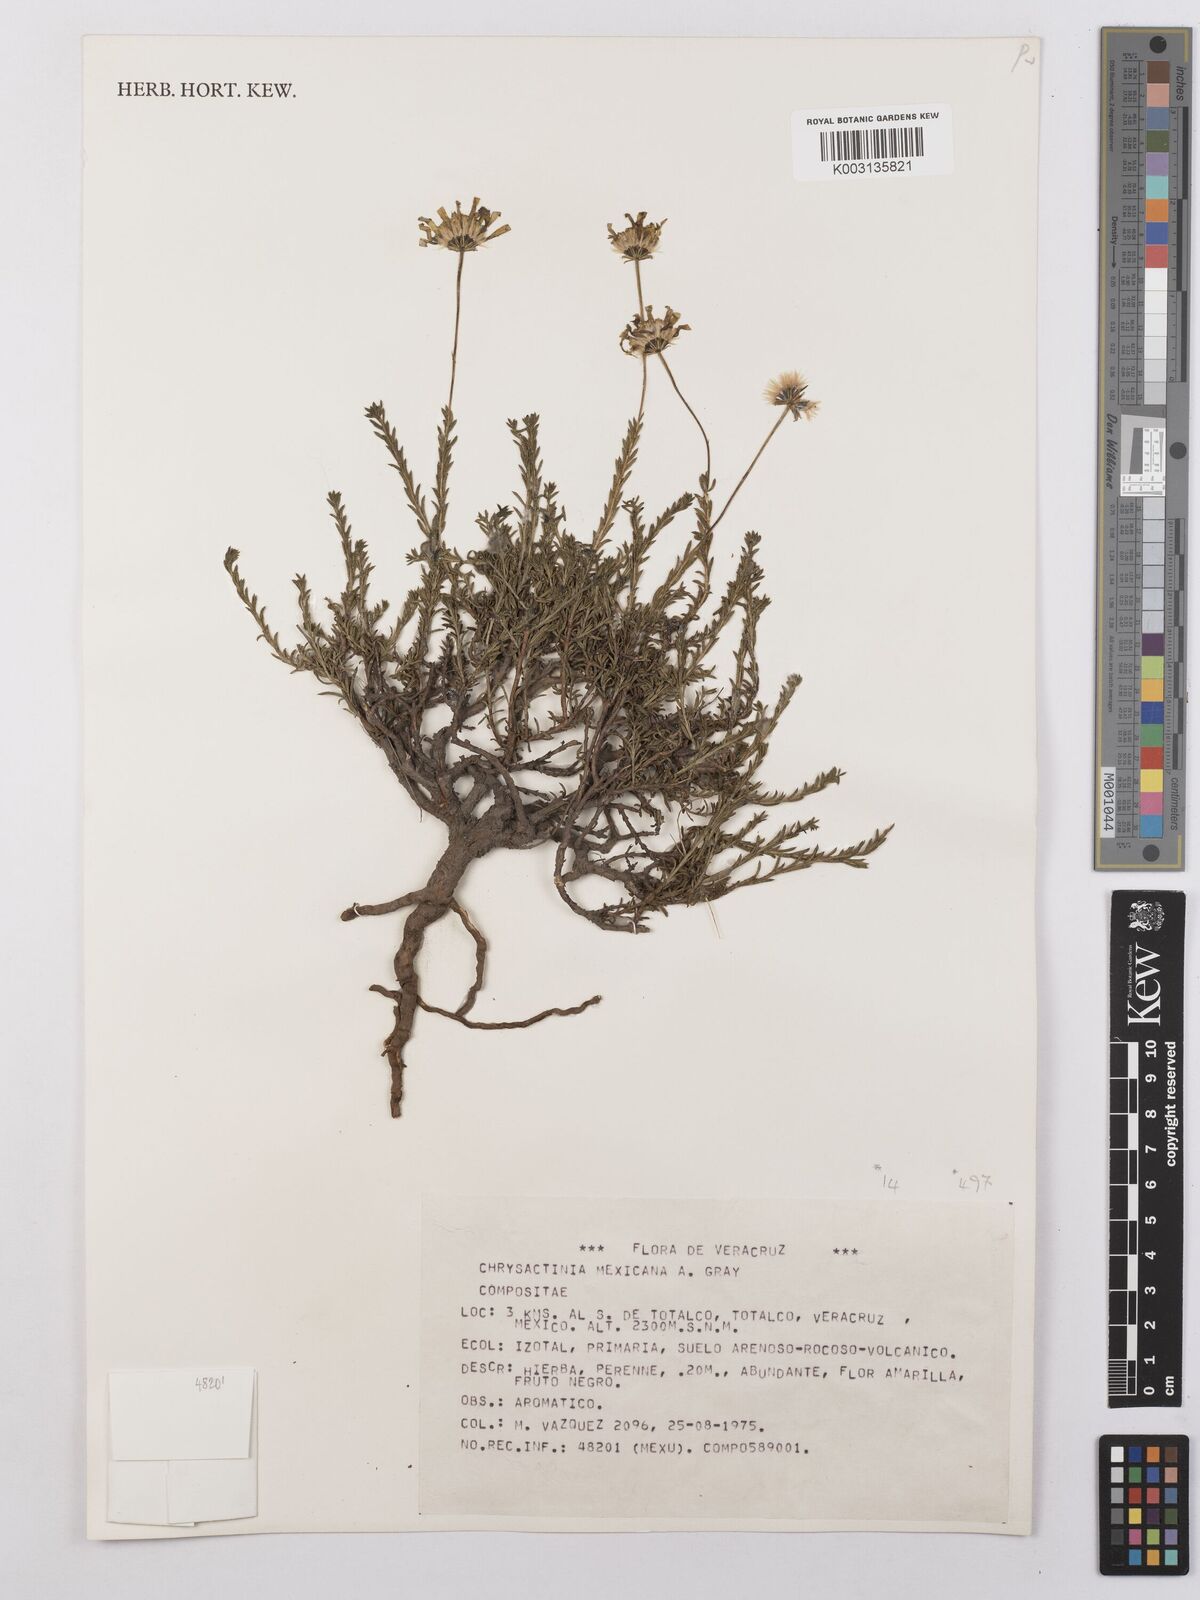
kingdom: Plantae
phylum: Tracheophyta
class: Magnoliopsida
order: Asterales
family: Asteraceae
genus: Chrysactinia
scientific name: Chrysactinia mexicana
